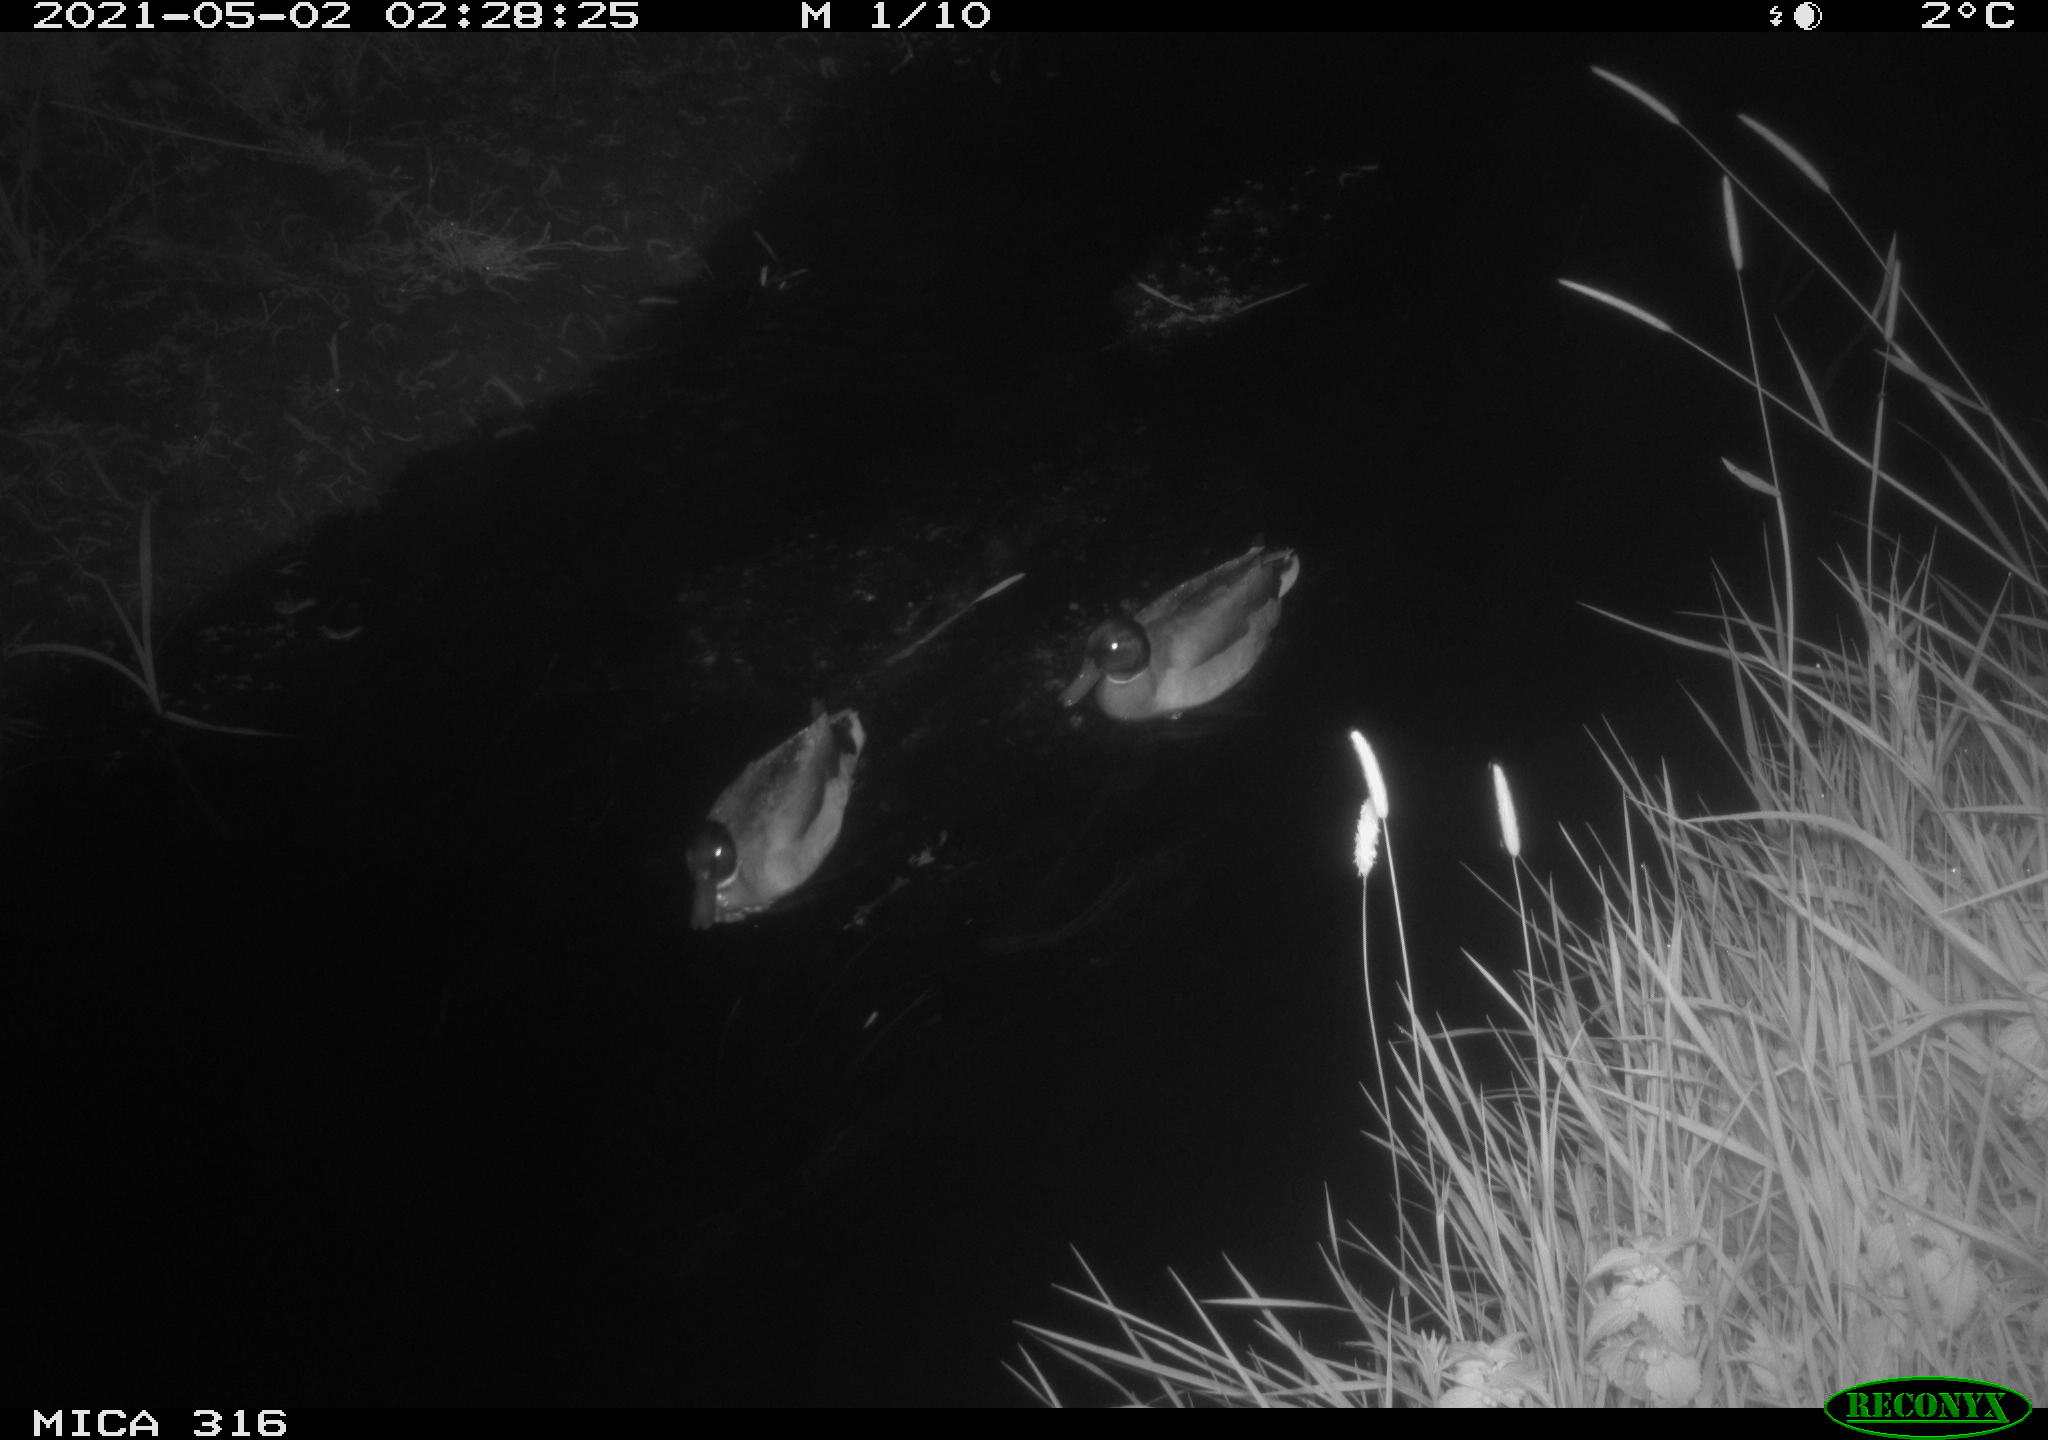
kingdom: Animalia
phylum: Chordata
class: Aves
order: Anseriformes
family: Anatidae
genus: Anas
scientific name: Anas platyrhynchos
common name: Mallard
